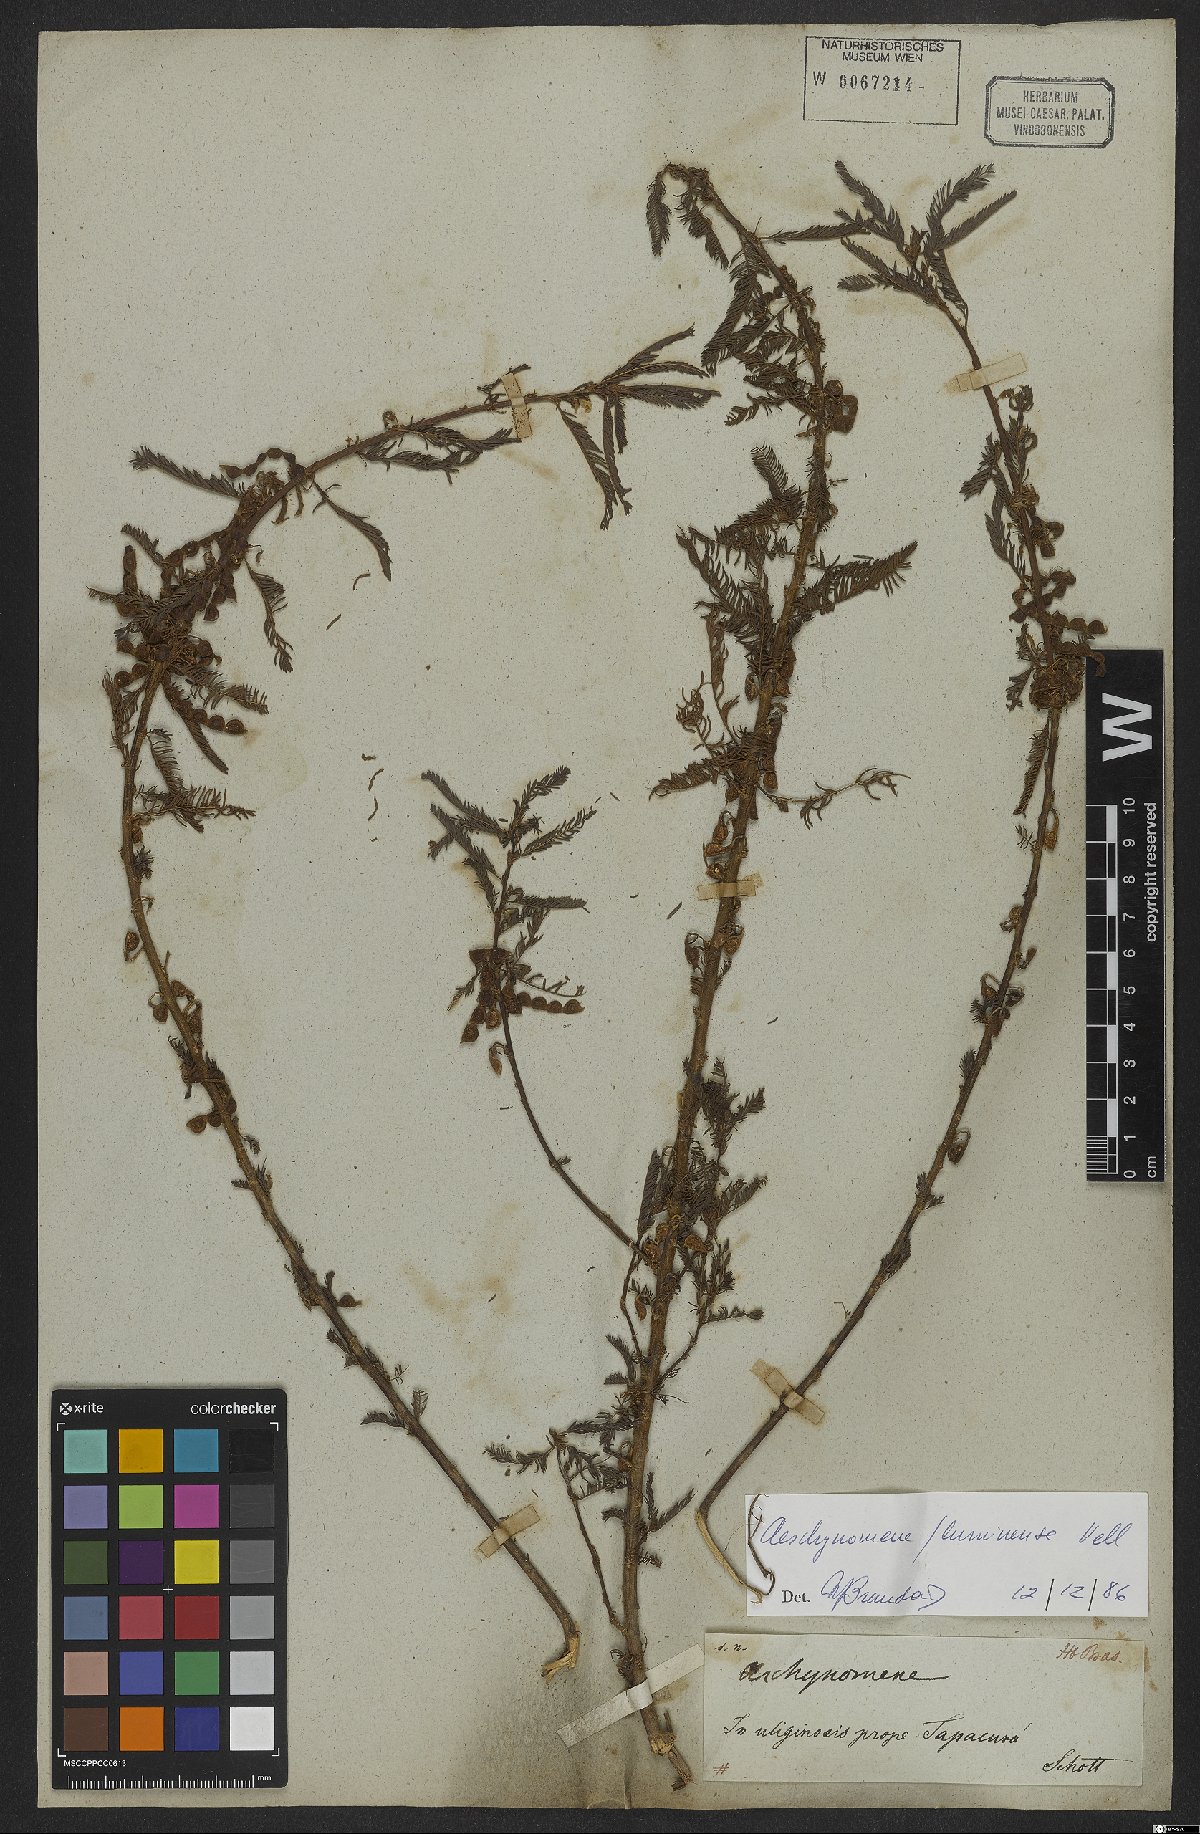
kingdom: Plantae
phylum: Tracheophyta
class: Magnoliopsida
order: Fabales
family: Fabaceae
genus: Aeschynomene
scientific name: Aeschynomene fluminensis
